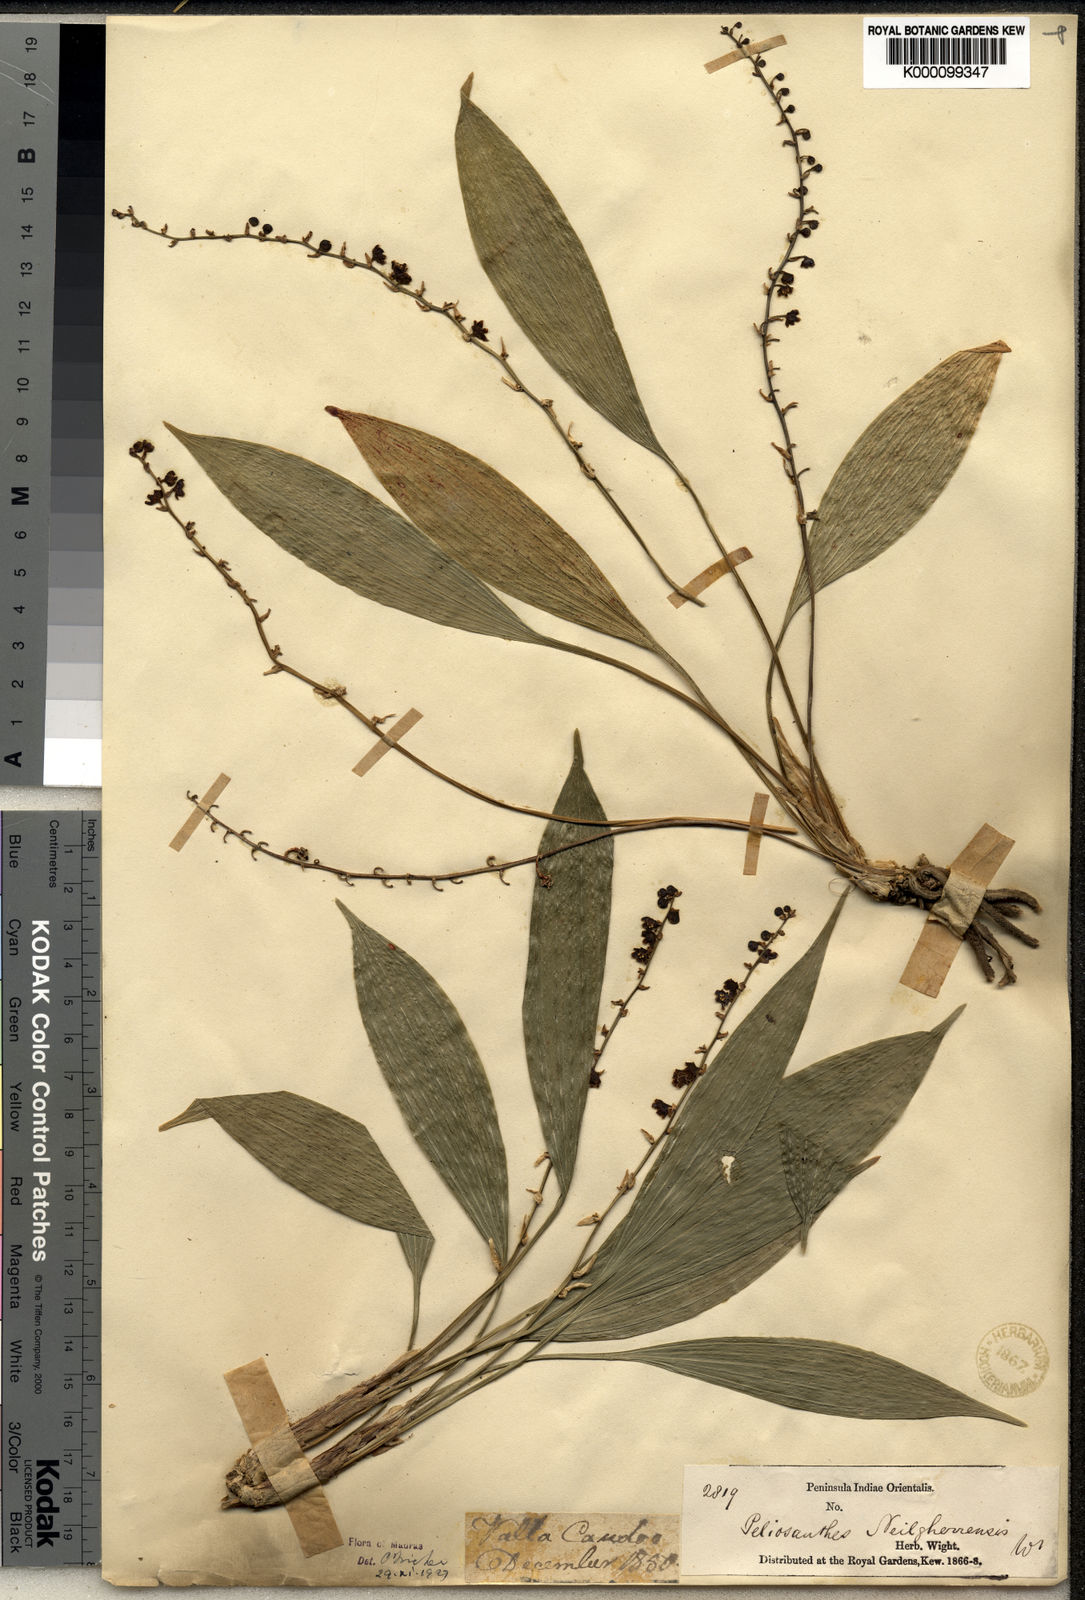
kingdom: Plantae
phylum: Tracheophyta
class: Liliopsida
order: Asparagales
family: Asparagaceae
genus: Peliosanthes
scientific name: Peliosanthes
